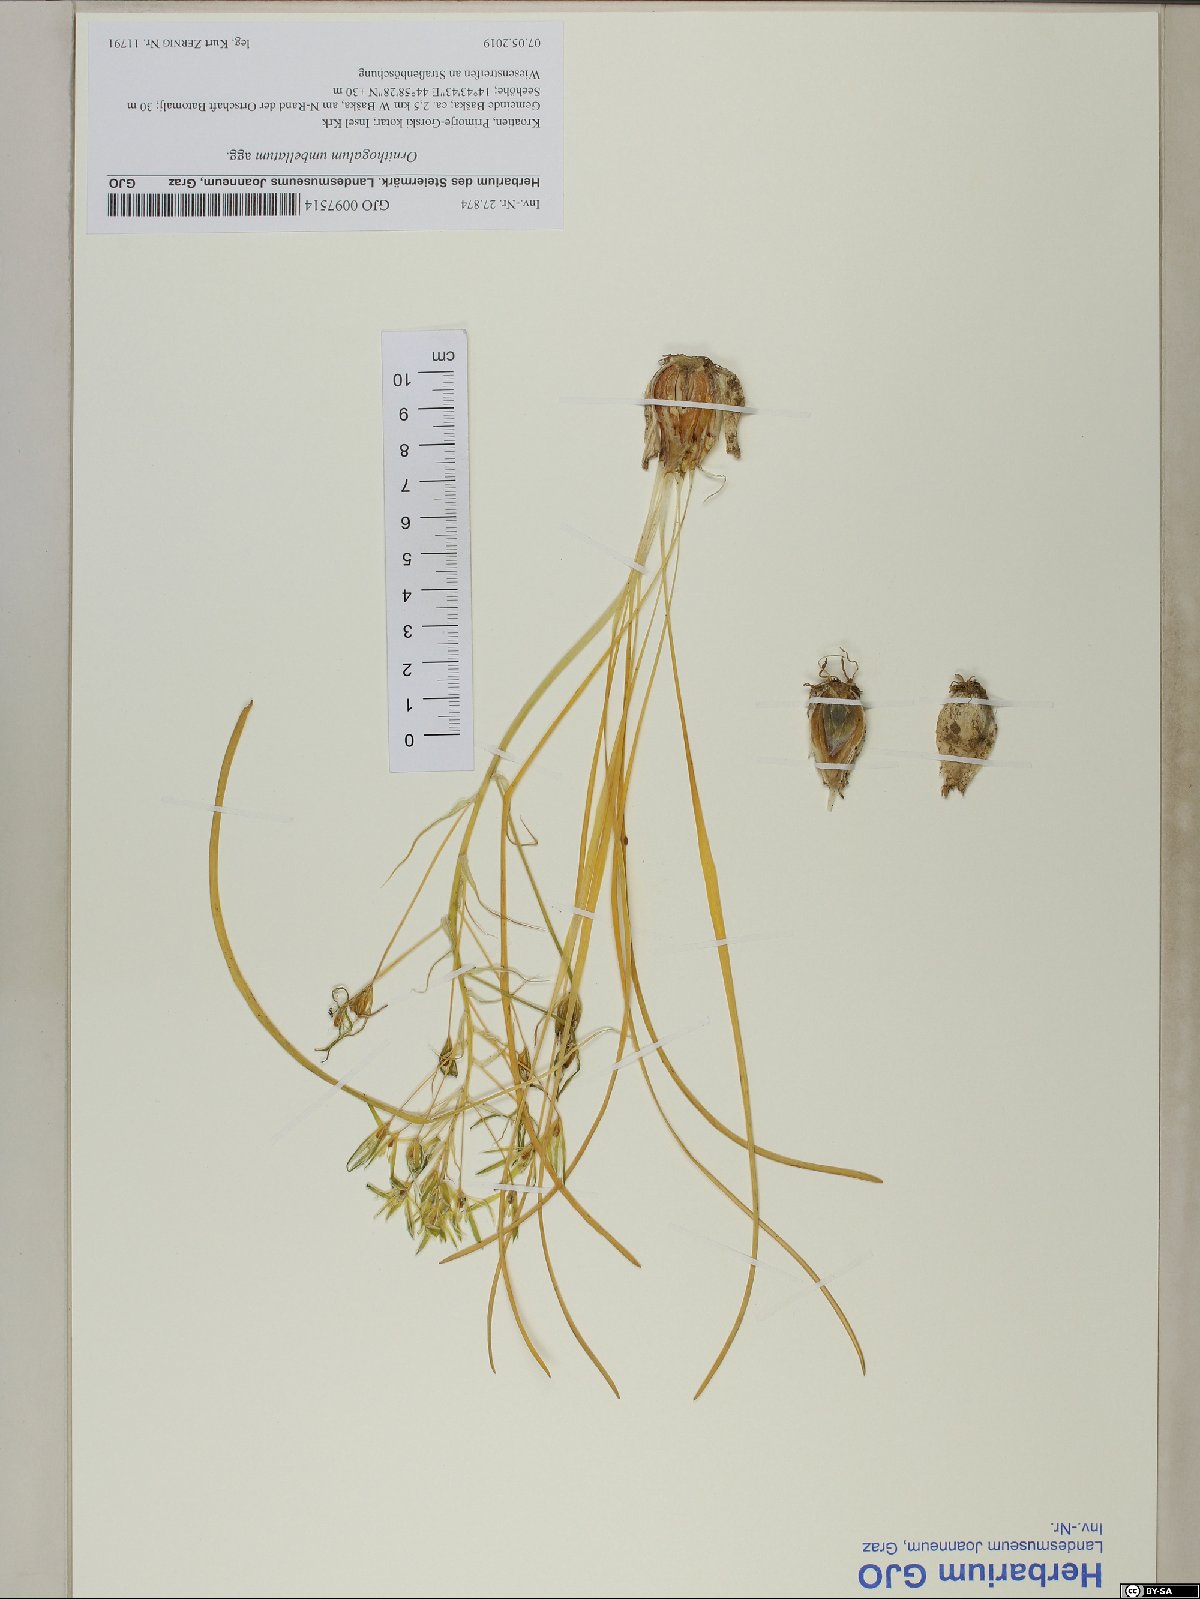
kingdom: Plantae
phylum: Tracheophyta
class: Liliopsida
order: Asparagales
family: Asparagaceae
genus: Ornithogalum
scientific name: Ornithogalum umbellatum
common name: Garden star-of-bethlehem
